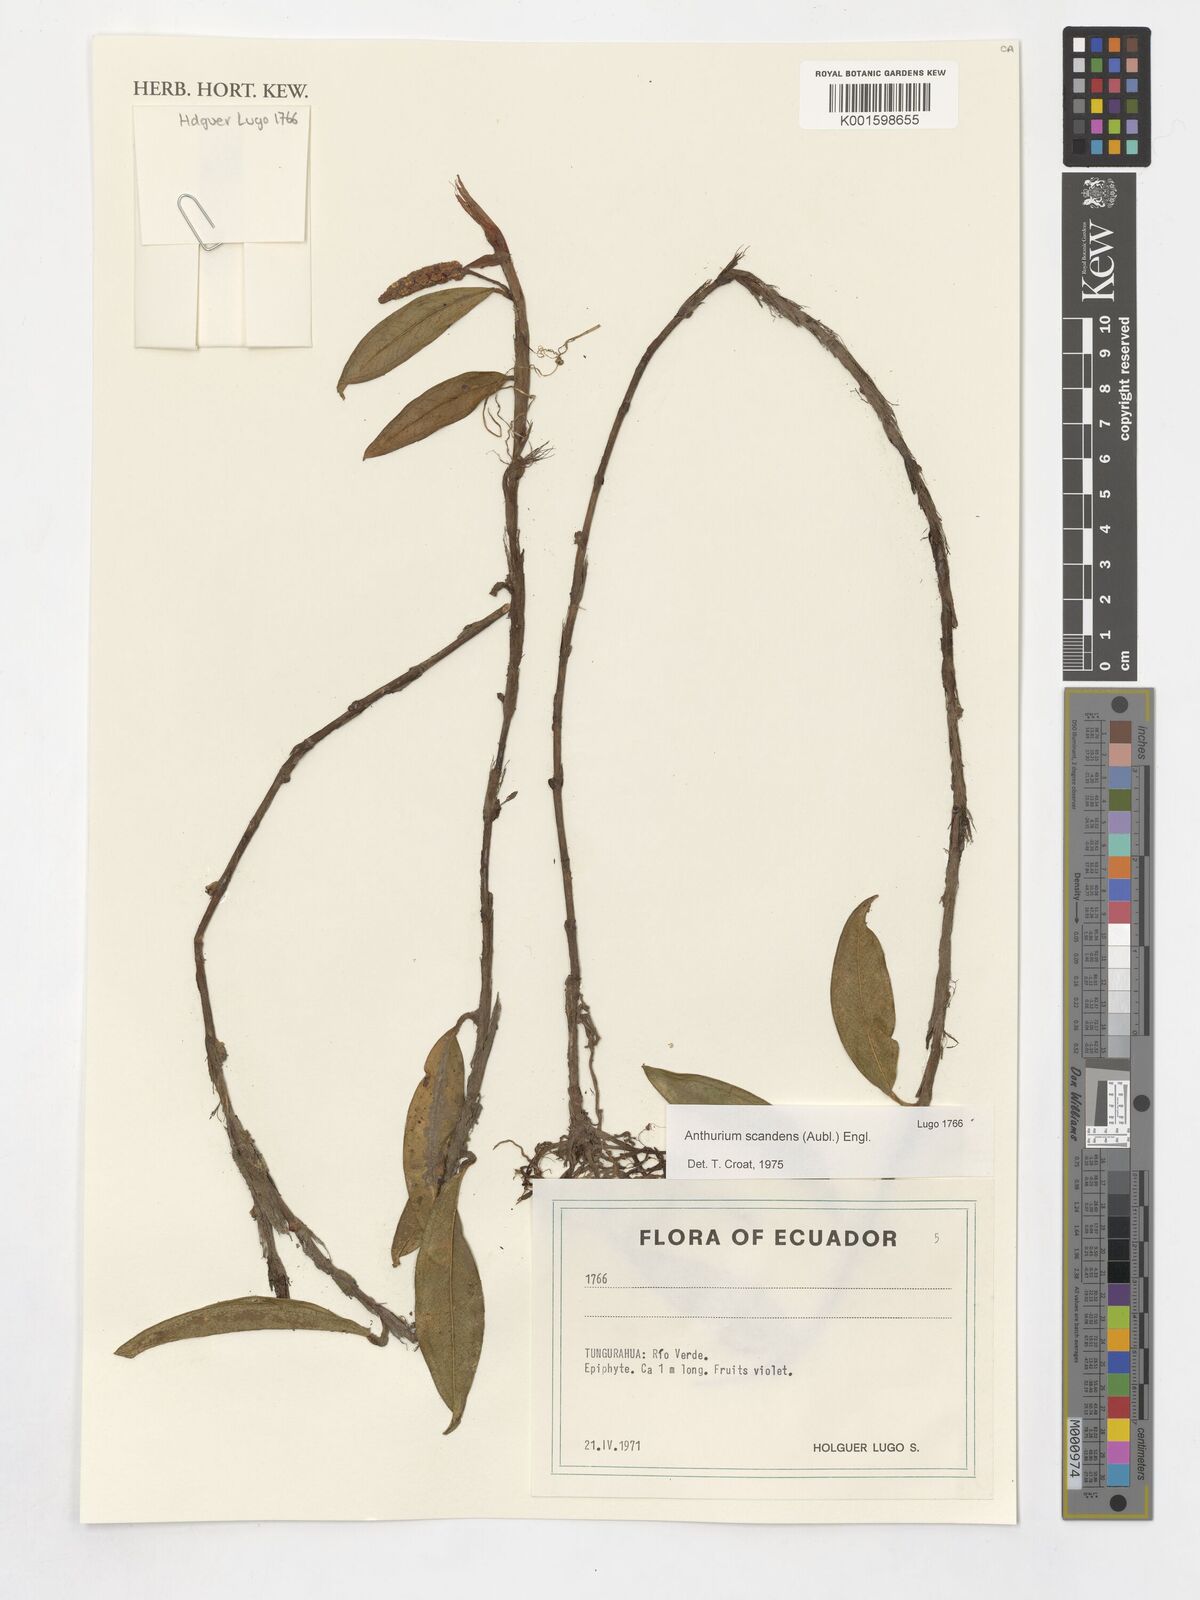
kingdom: Plantae
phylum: Tracheophyta
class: Liliopsida
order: Alismatales
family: Araceae
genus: Anthurium
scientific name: Anthurium scandens
